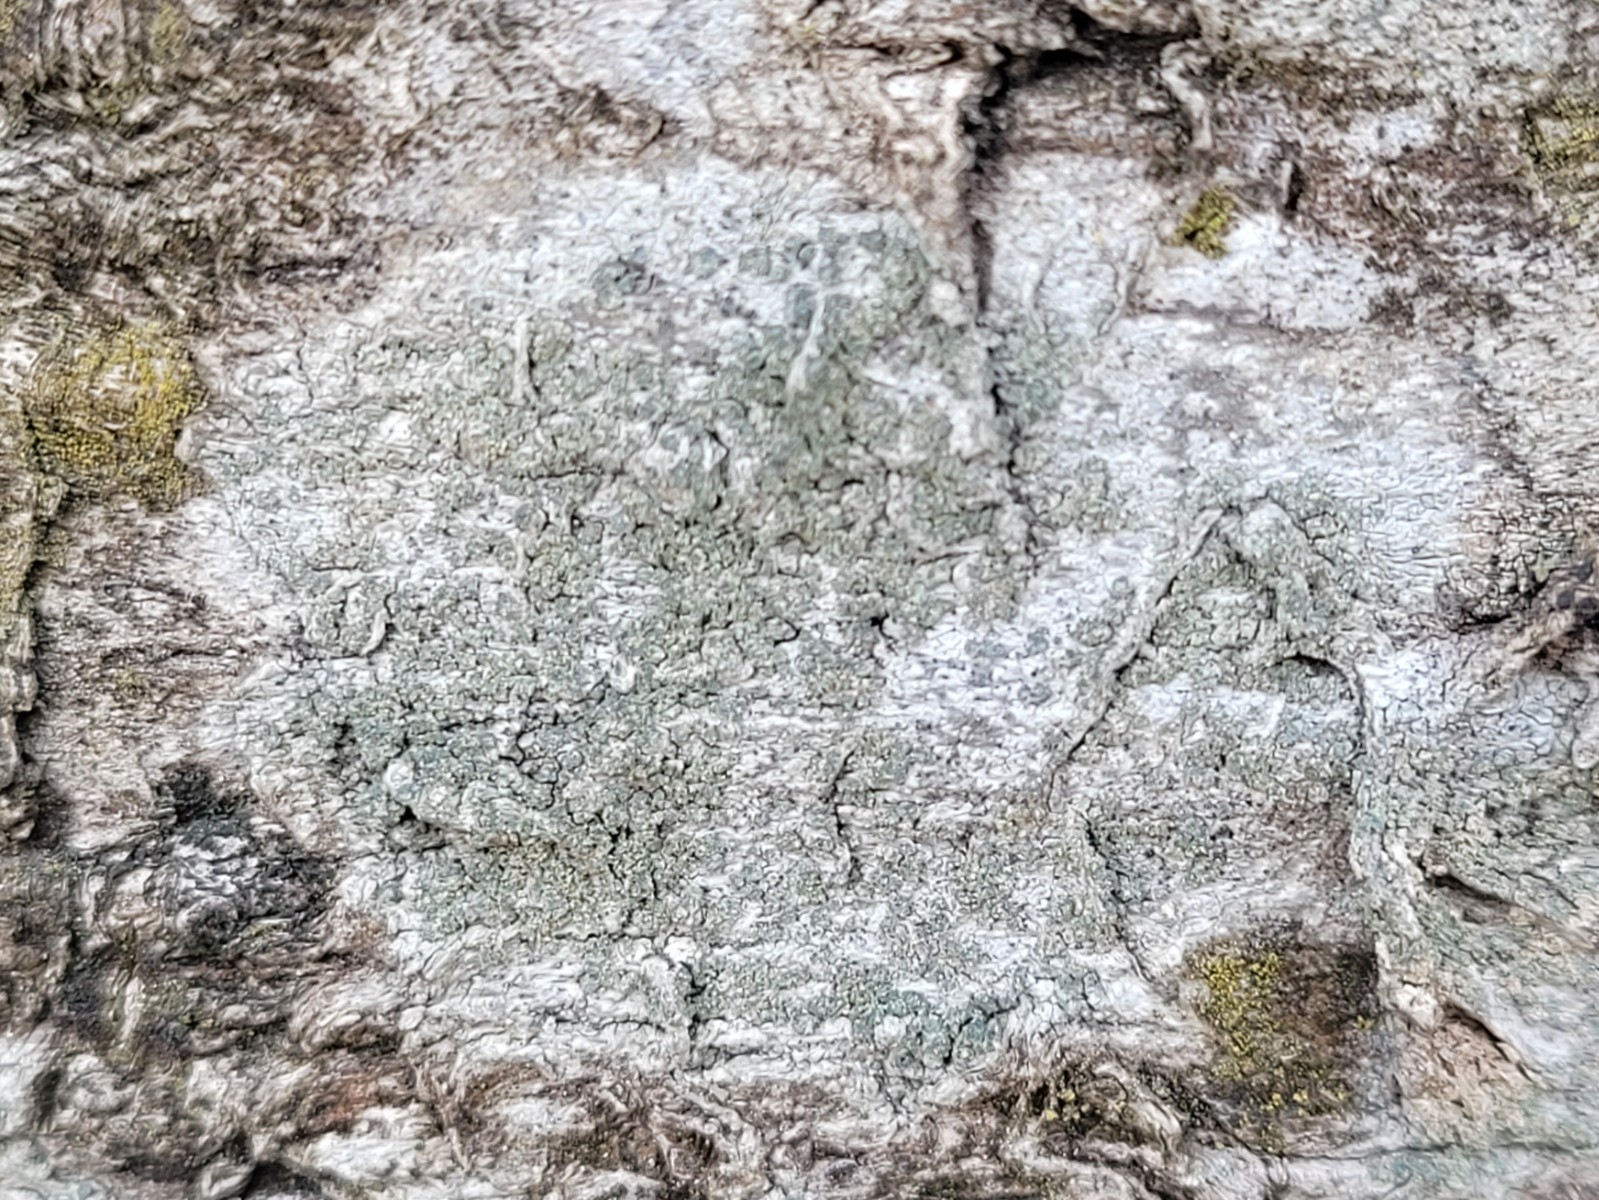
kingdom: Fungi
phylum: Ascomycota
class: Lecanoromycetes
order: Caliciales
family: Caliciaceae
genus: Buellia
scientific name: Buellia griseovirens
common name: grågrøn sortskivelav
